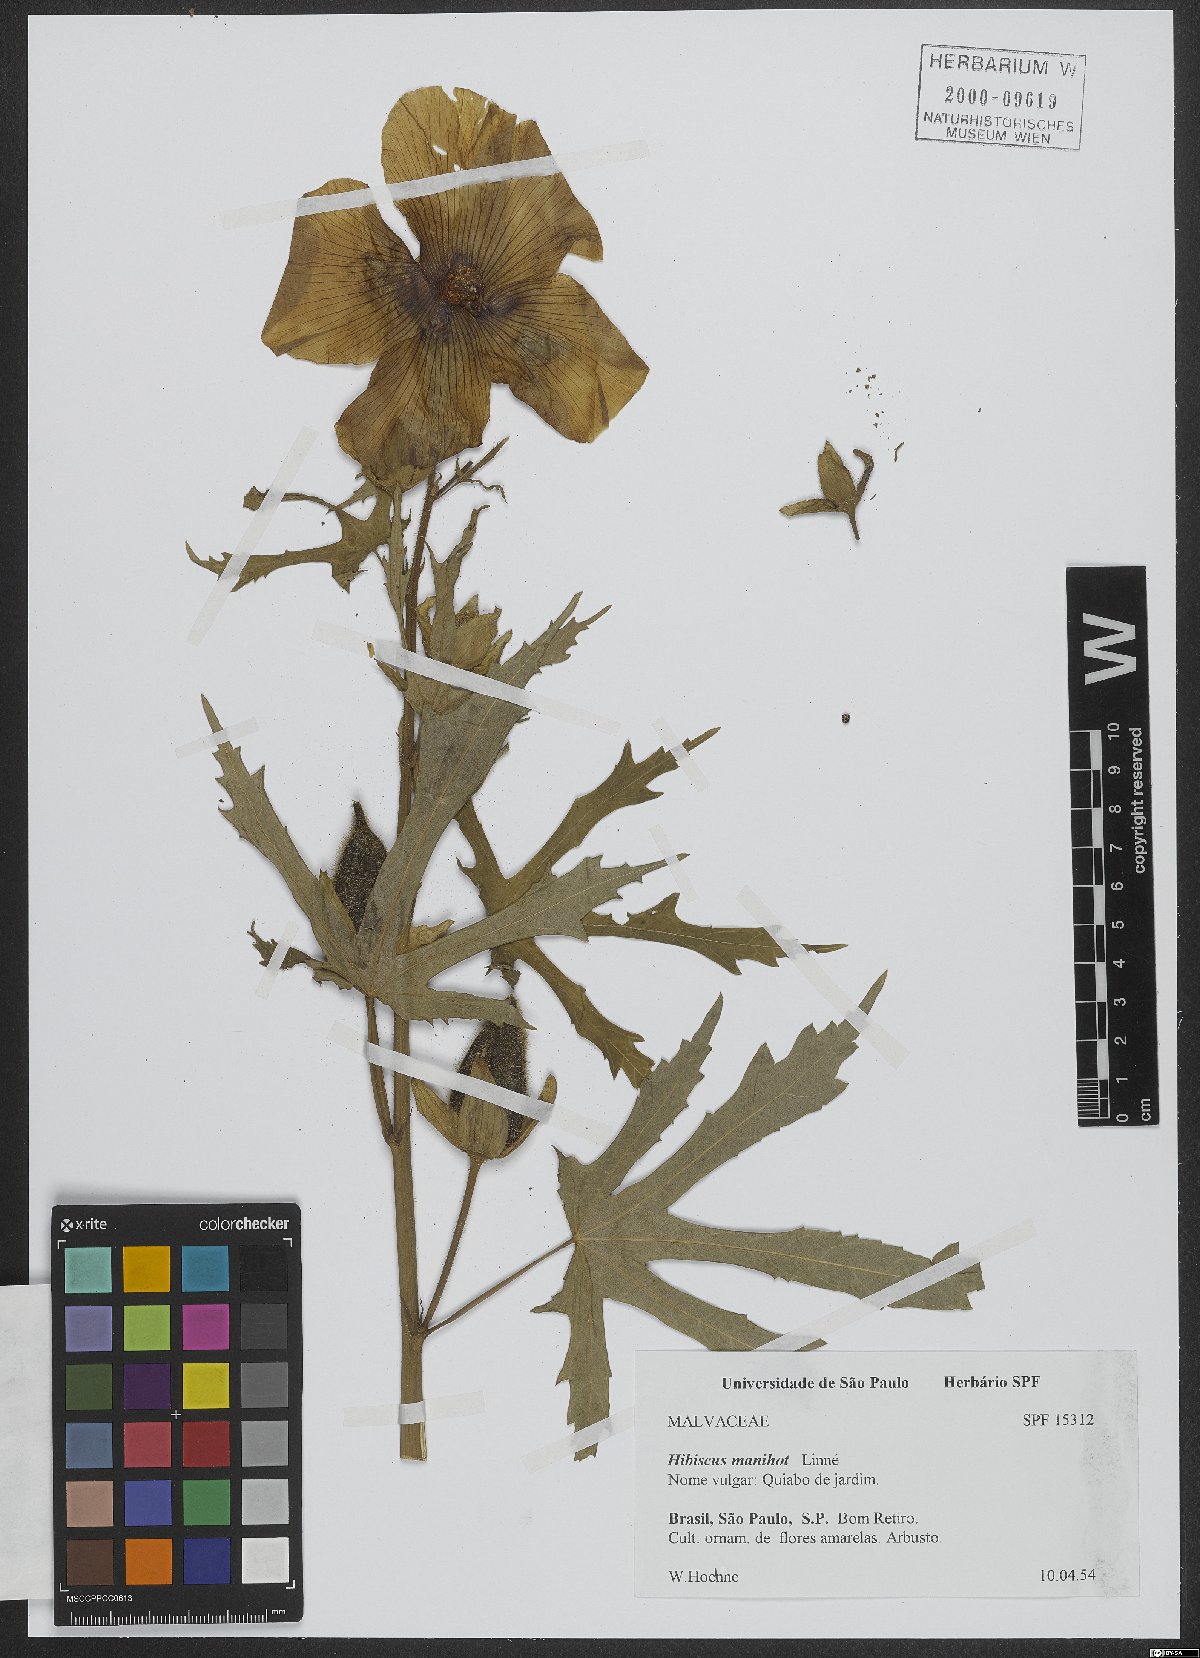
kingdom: Plantae
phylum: Tracheophyta
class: Magnoliopsida
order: Malvales
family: Malvaceae
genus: Abelmoschus
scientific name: Abelmoschus manihot
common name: Sunset muskmallow
